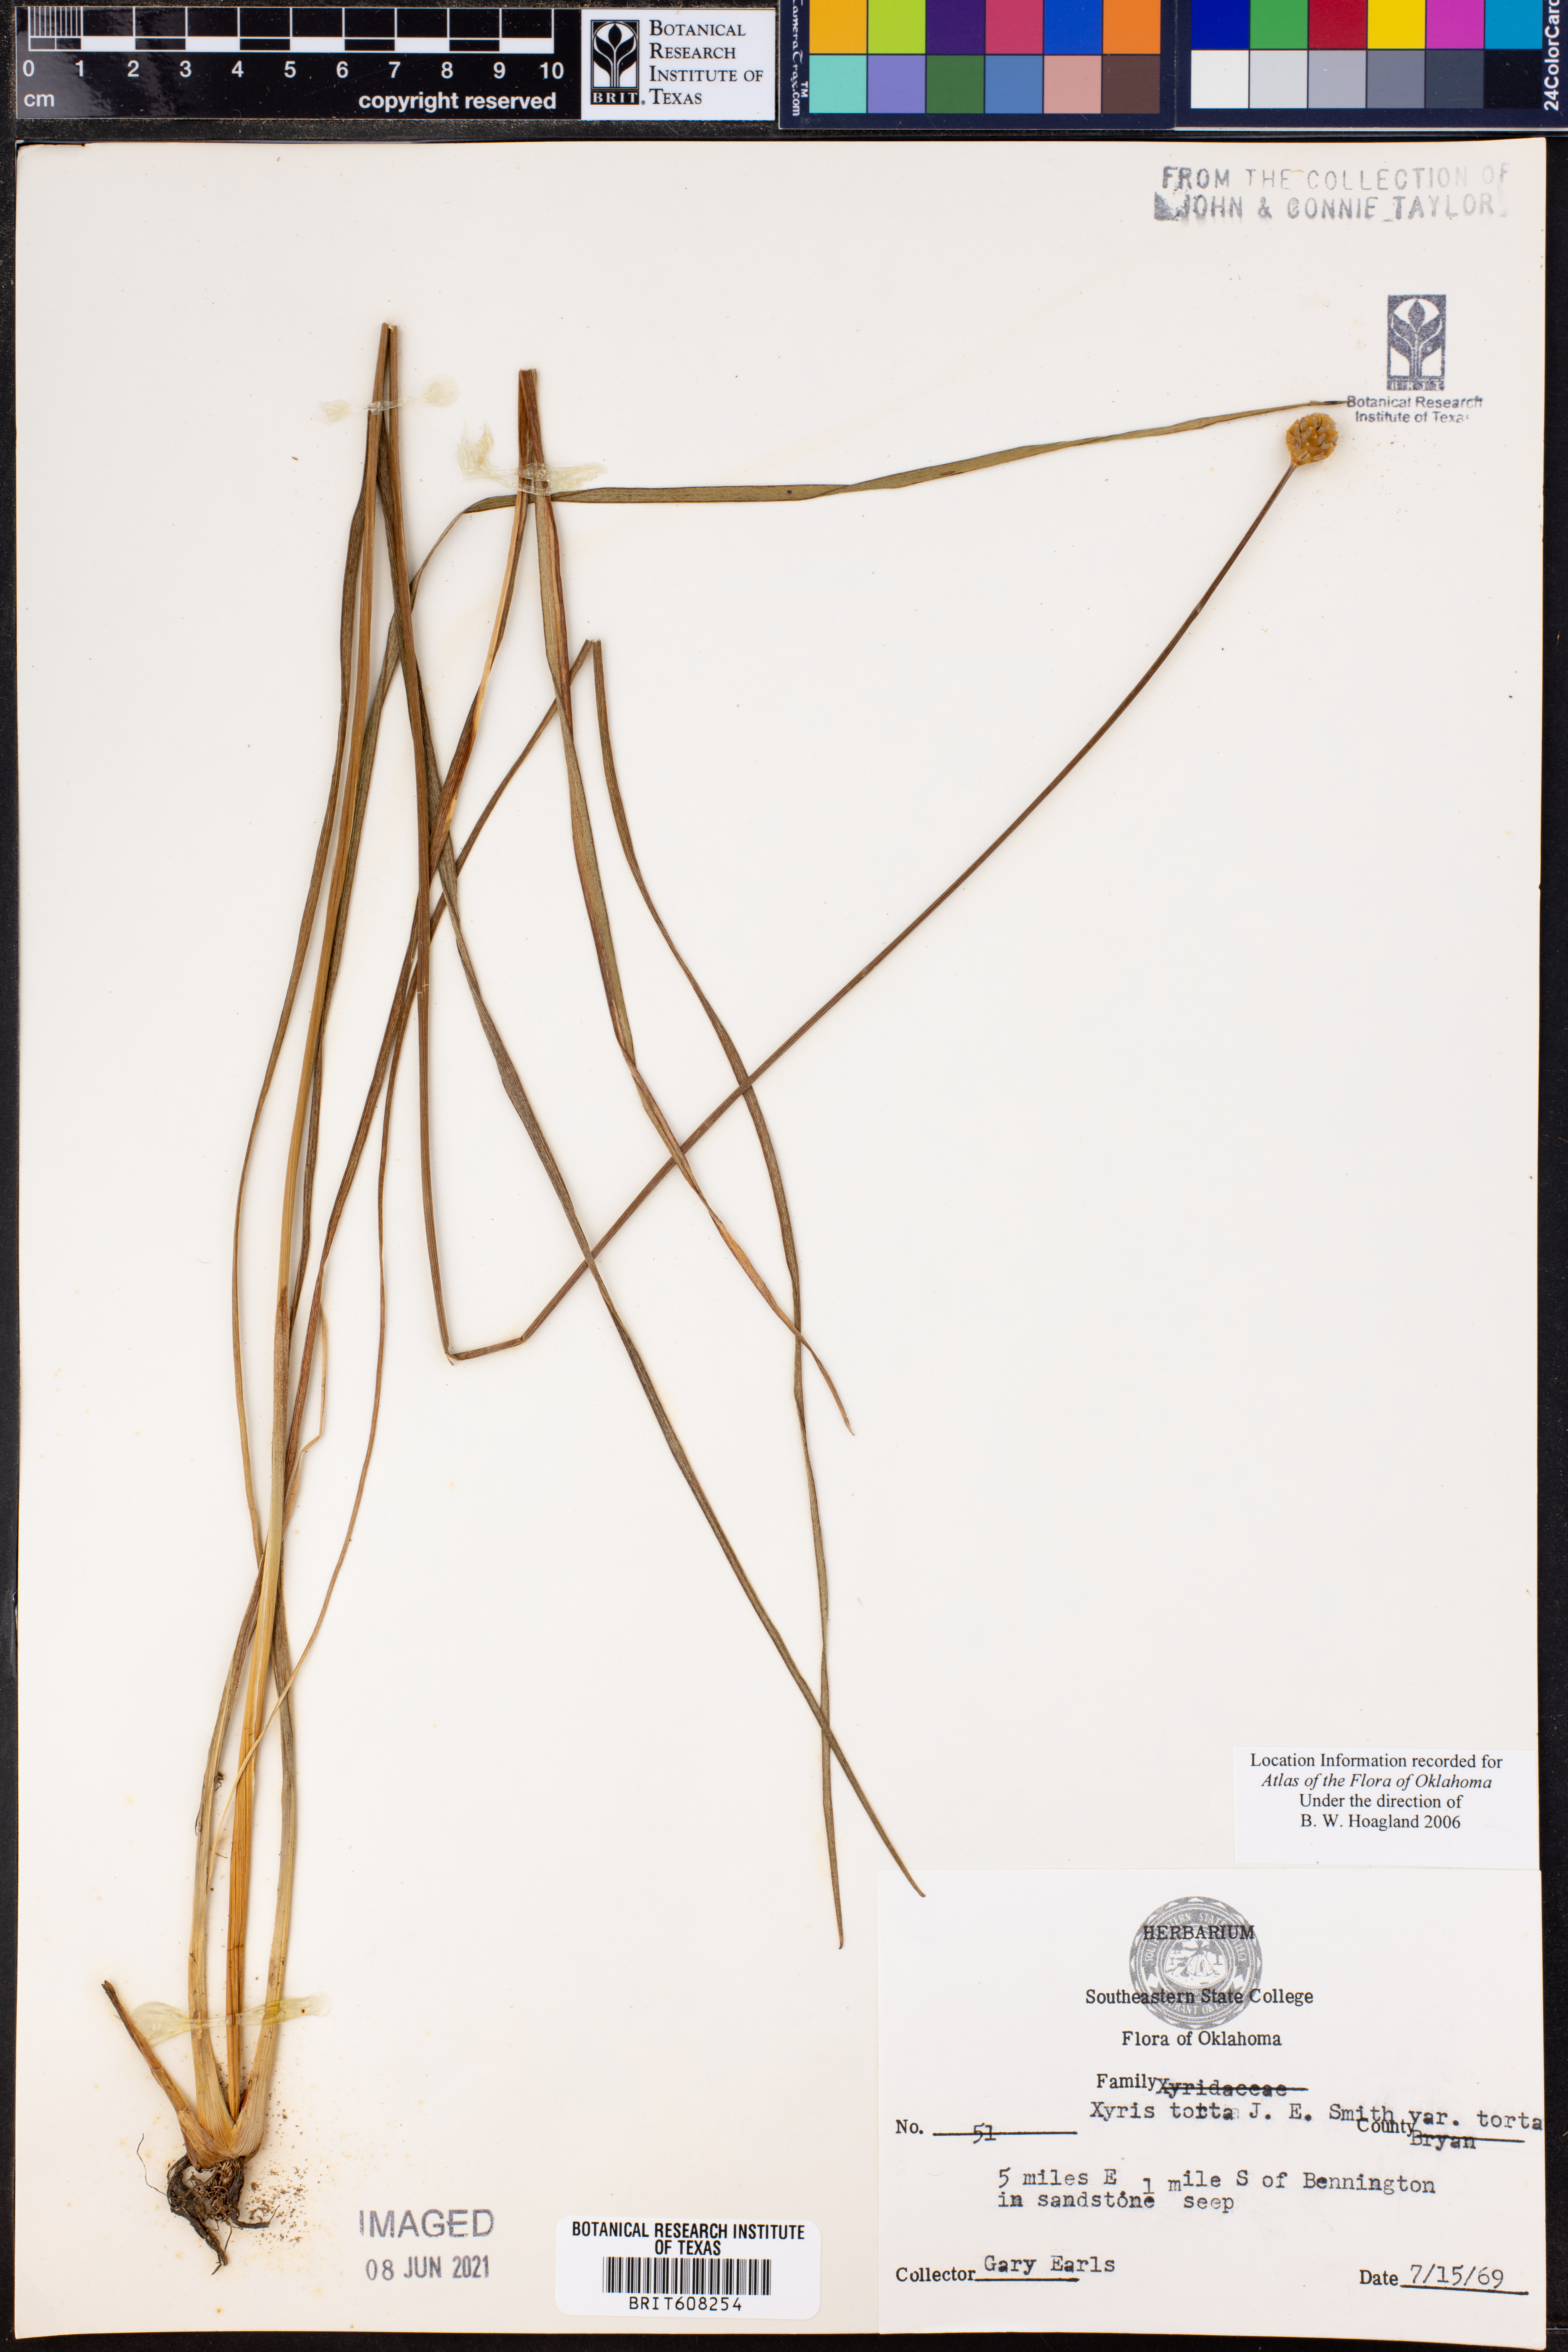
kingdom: Plantae
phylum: Tracheophyta
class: Liliopsida
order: Poales
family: Xyridaceae
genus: Xyris
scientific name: Xyris torta
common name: Common yelloweyed grass
